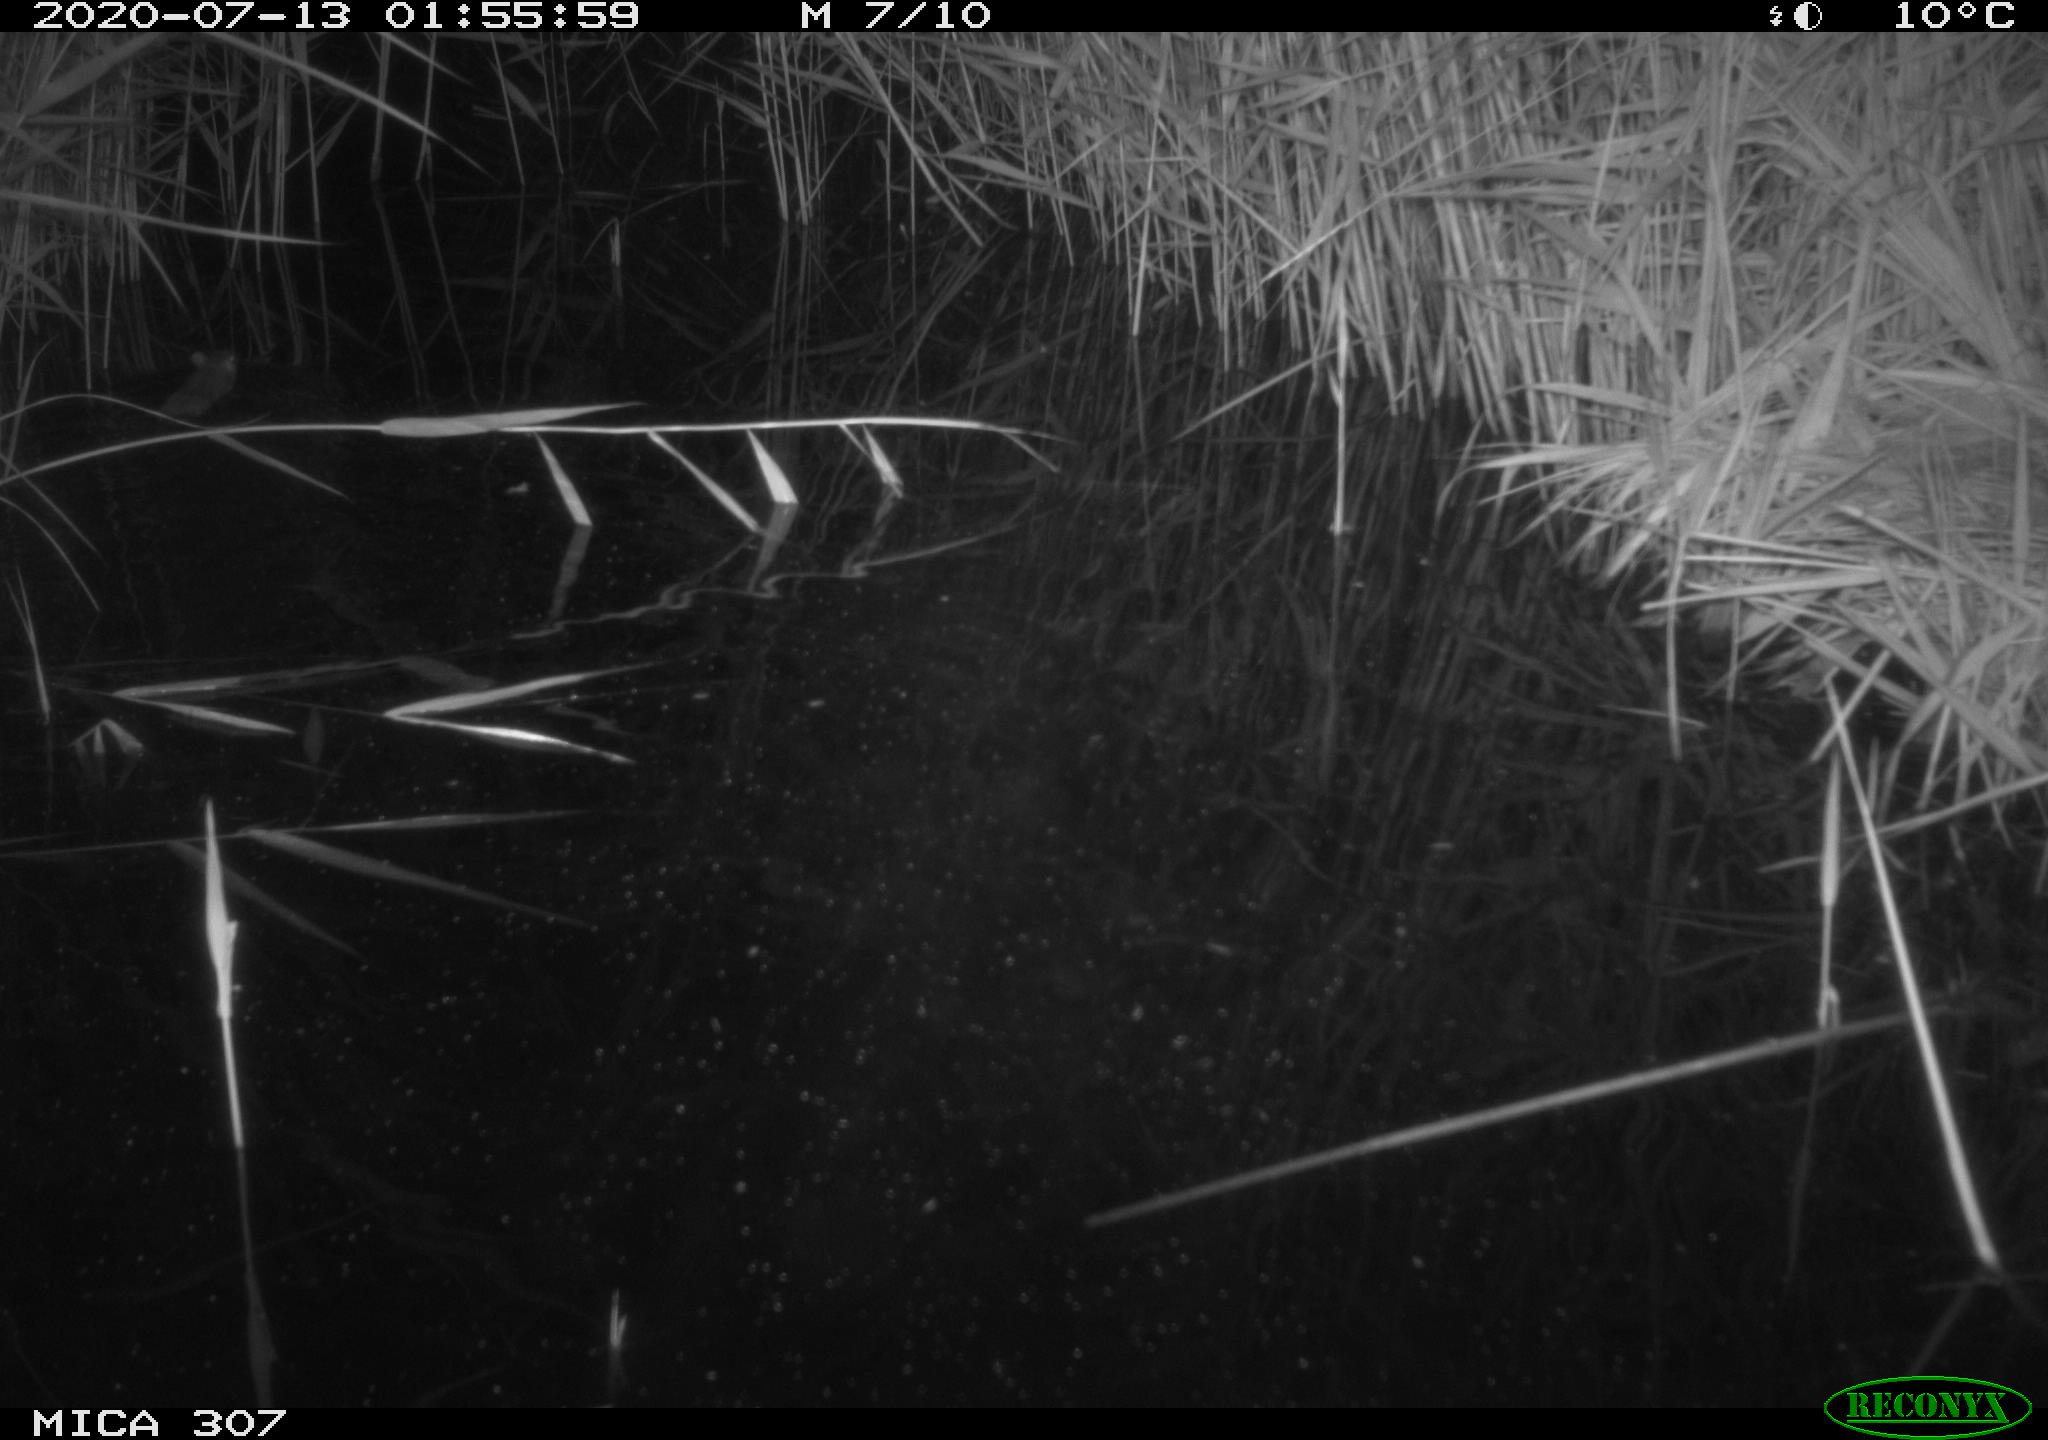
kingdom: Animalia
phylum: Chordata
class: Mammalia
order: Rodentia
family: Muridae
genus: Rattus
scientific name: Rattus norvegicus
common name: Brown rat
